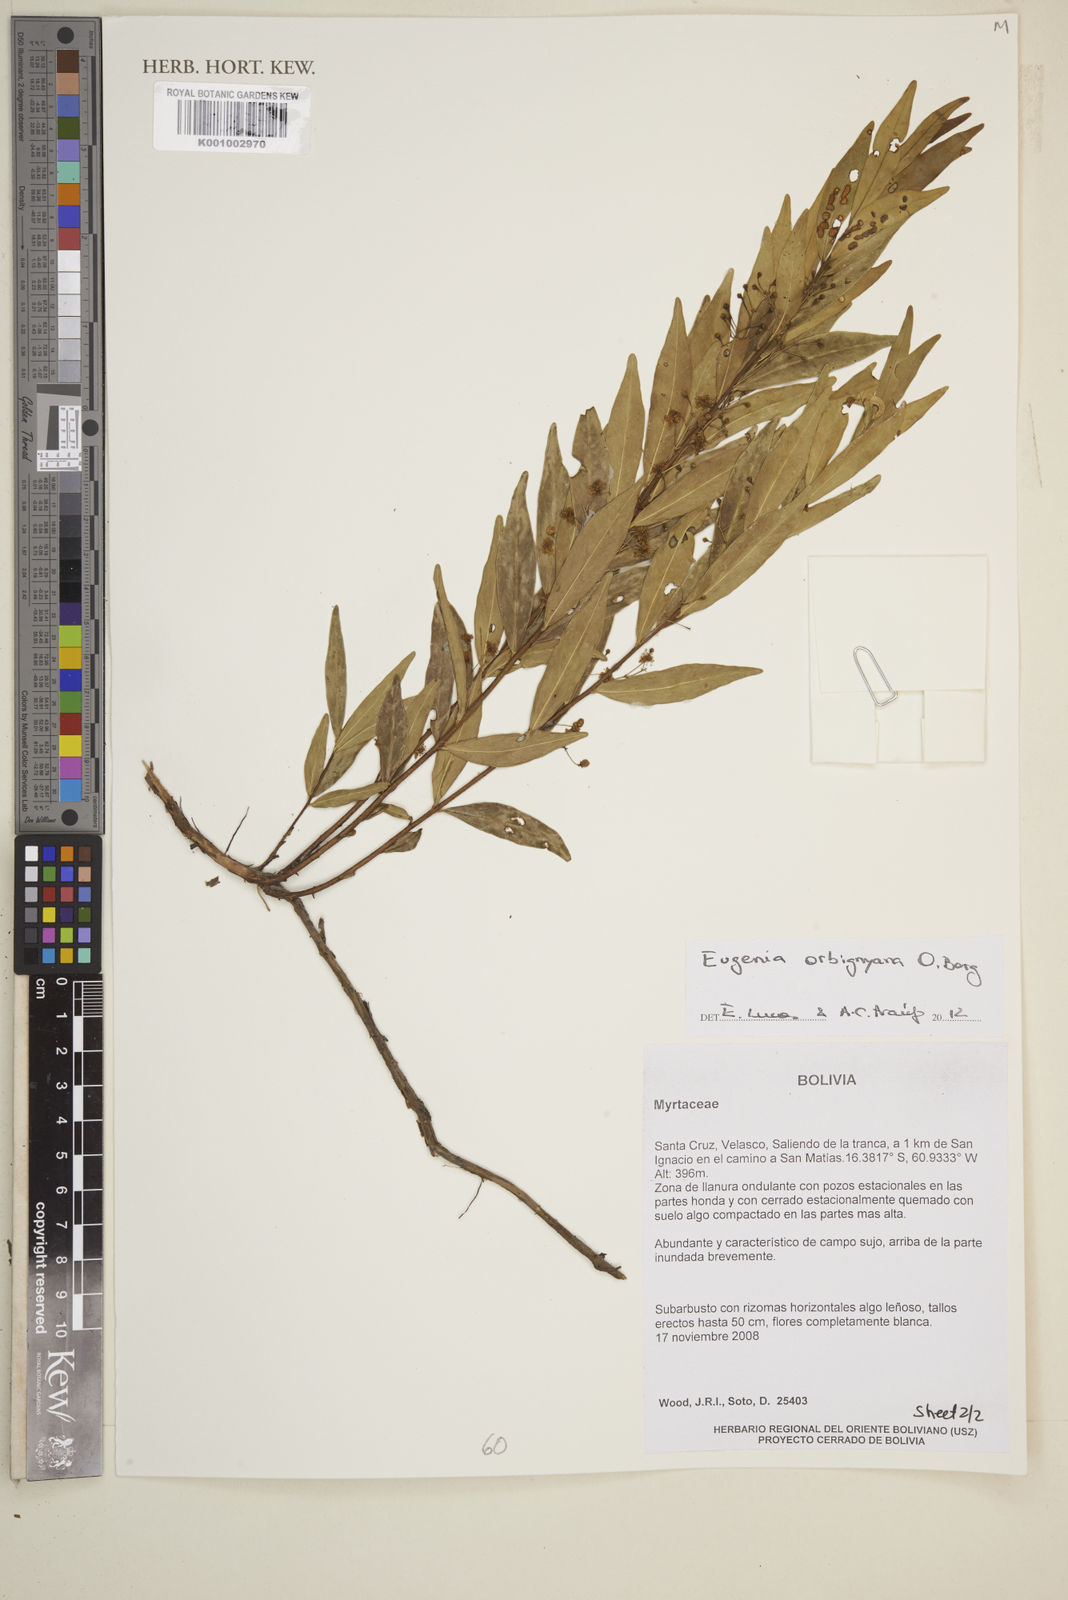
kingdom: Plantae
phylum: Tracheophyta
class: Magnoliopsida
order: Myrtales
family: Myrtaceae
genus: Eugenia
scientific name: Eugenia orbignyana
